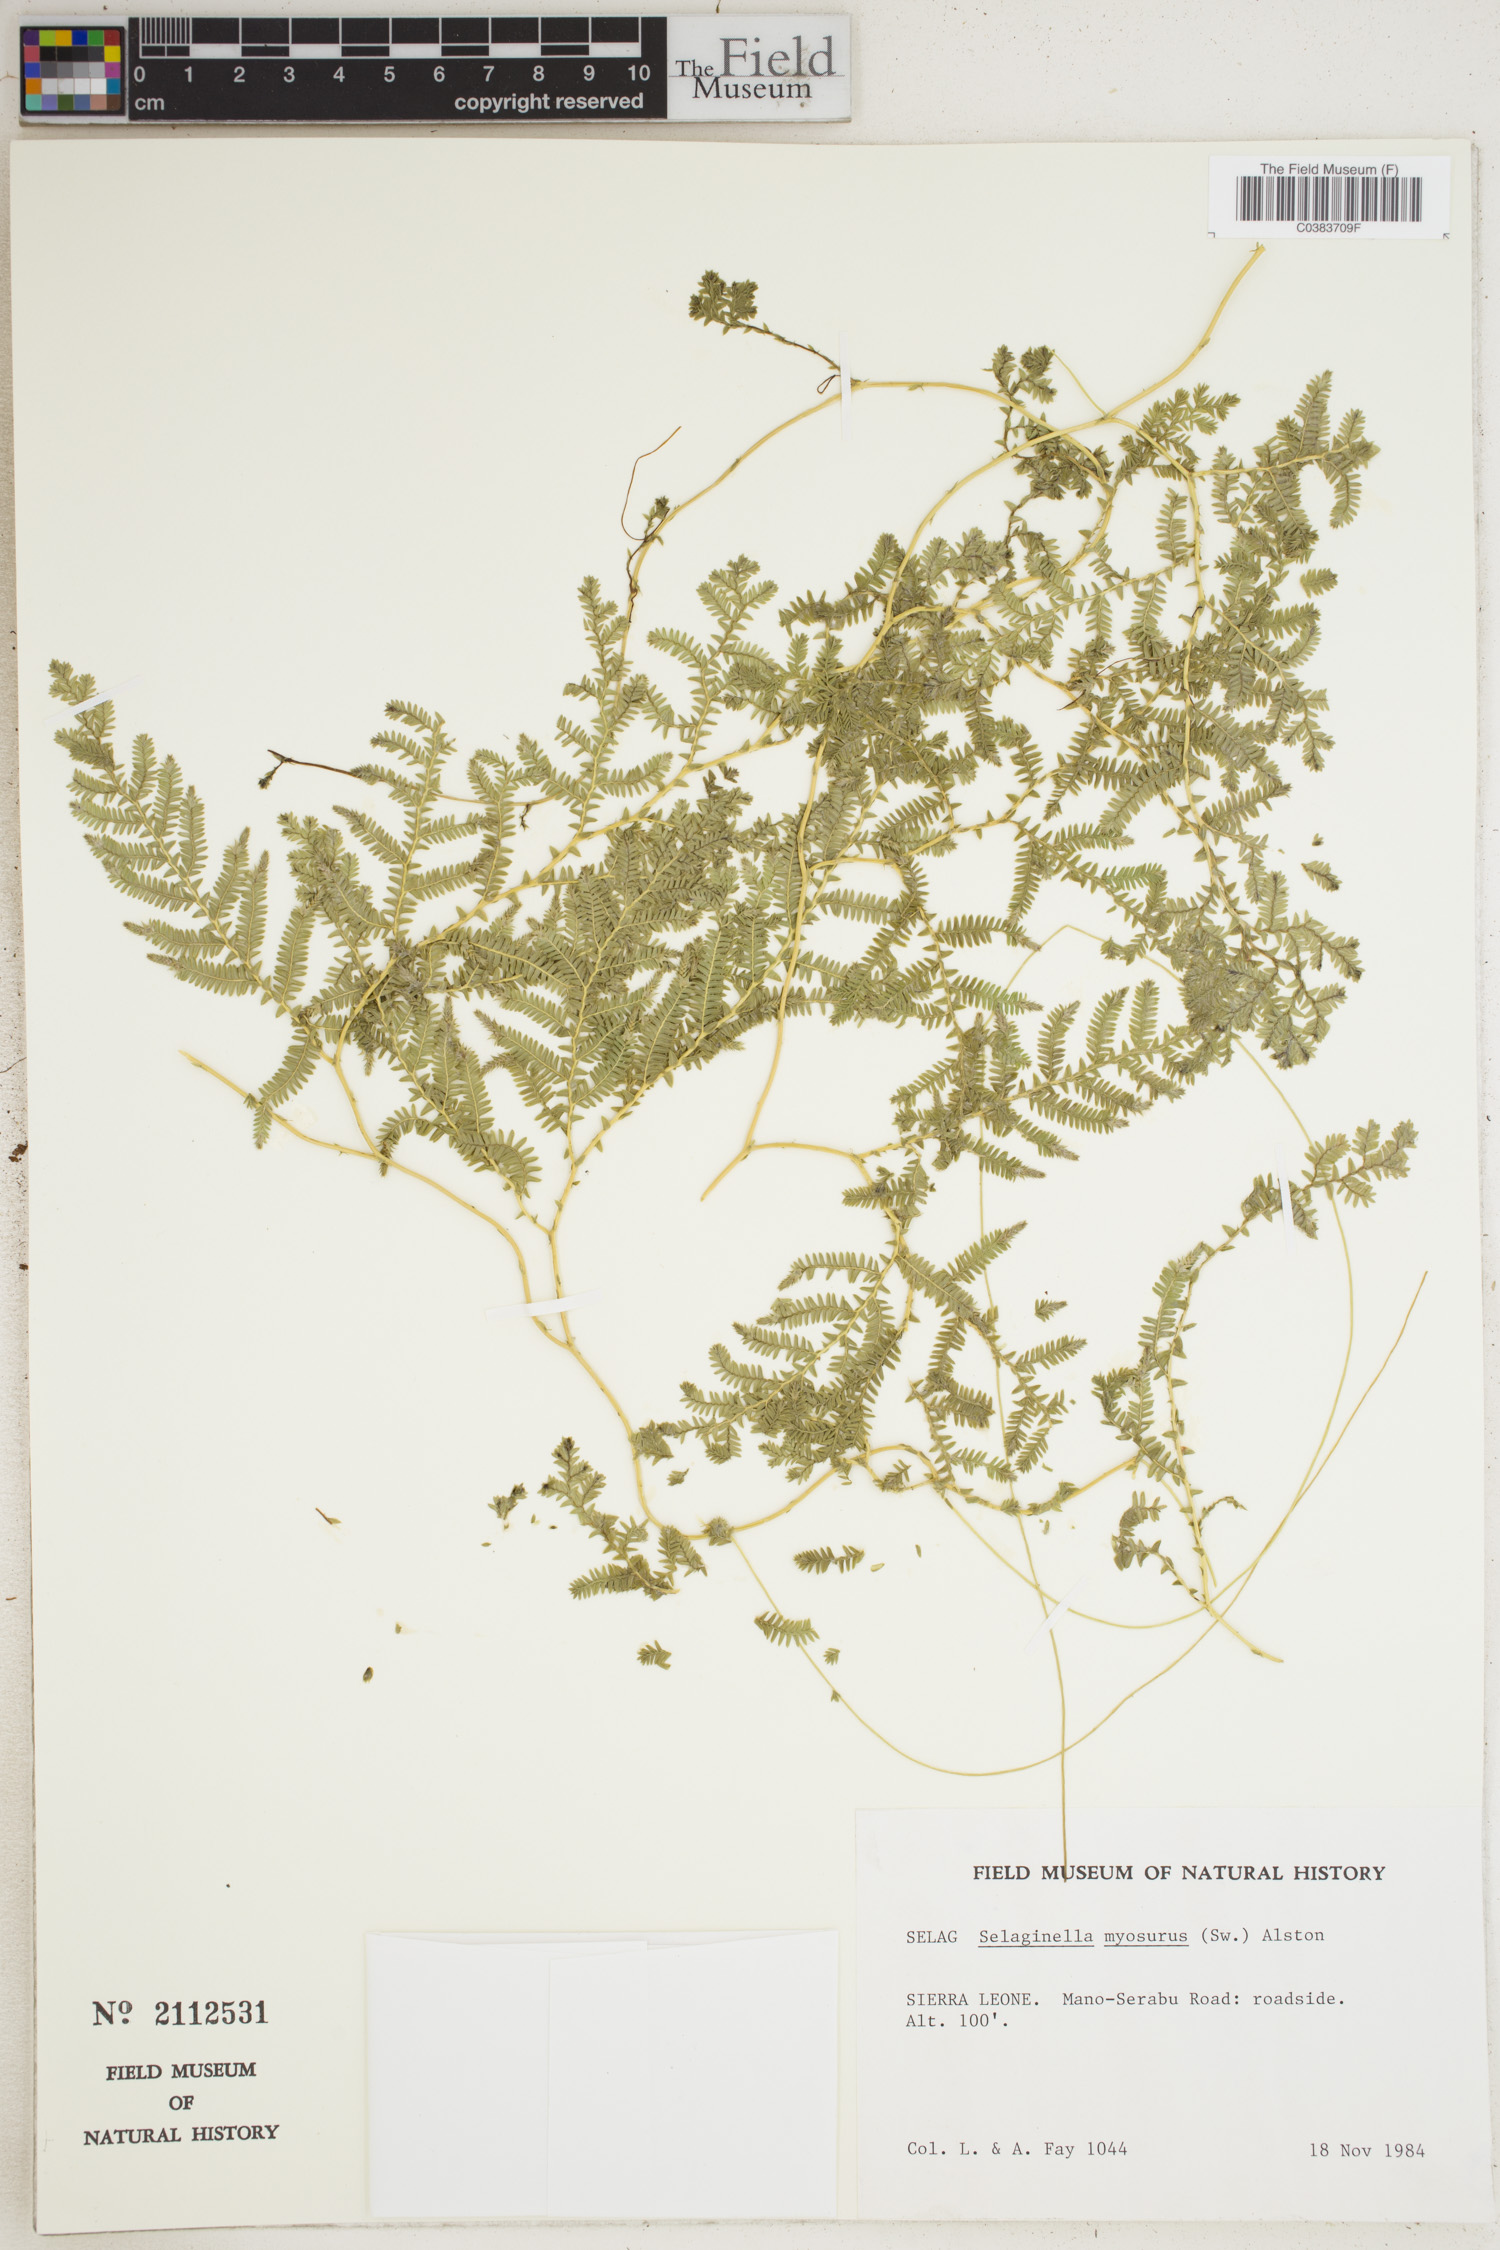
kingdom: Plantae
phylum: Tracheophyta
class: Lycopodiopsida
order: Selaginellales
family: Selaginellaceae
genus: Selaginella
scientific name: Selaginella myosurus
